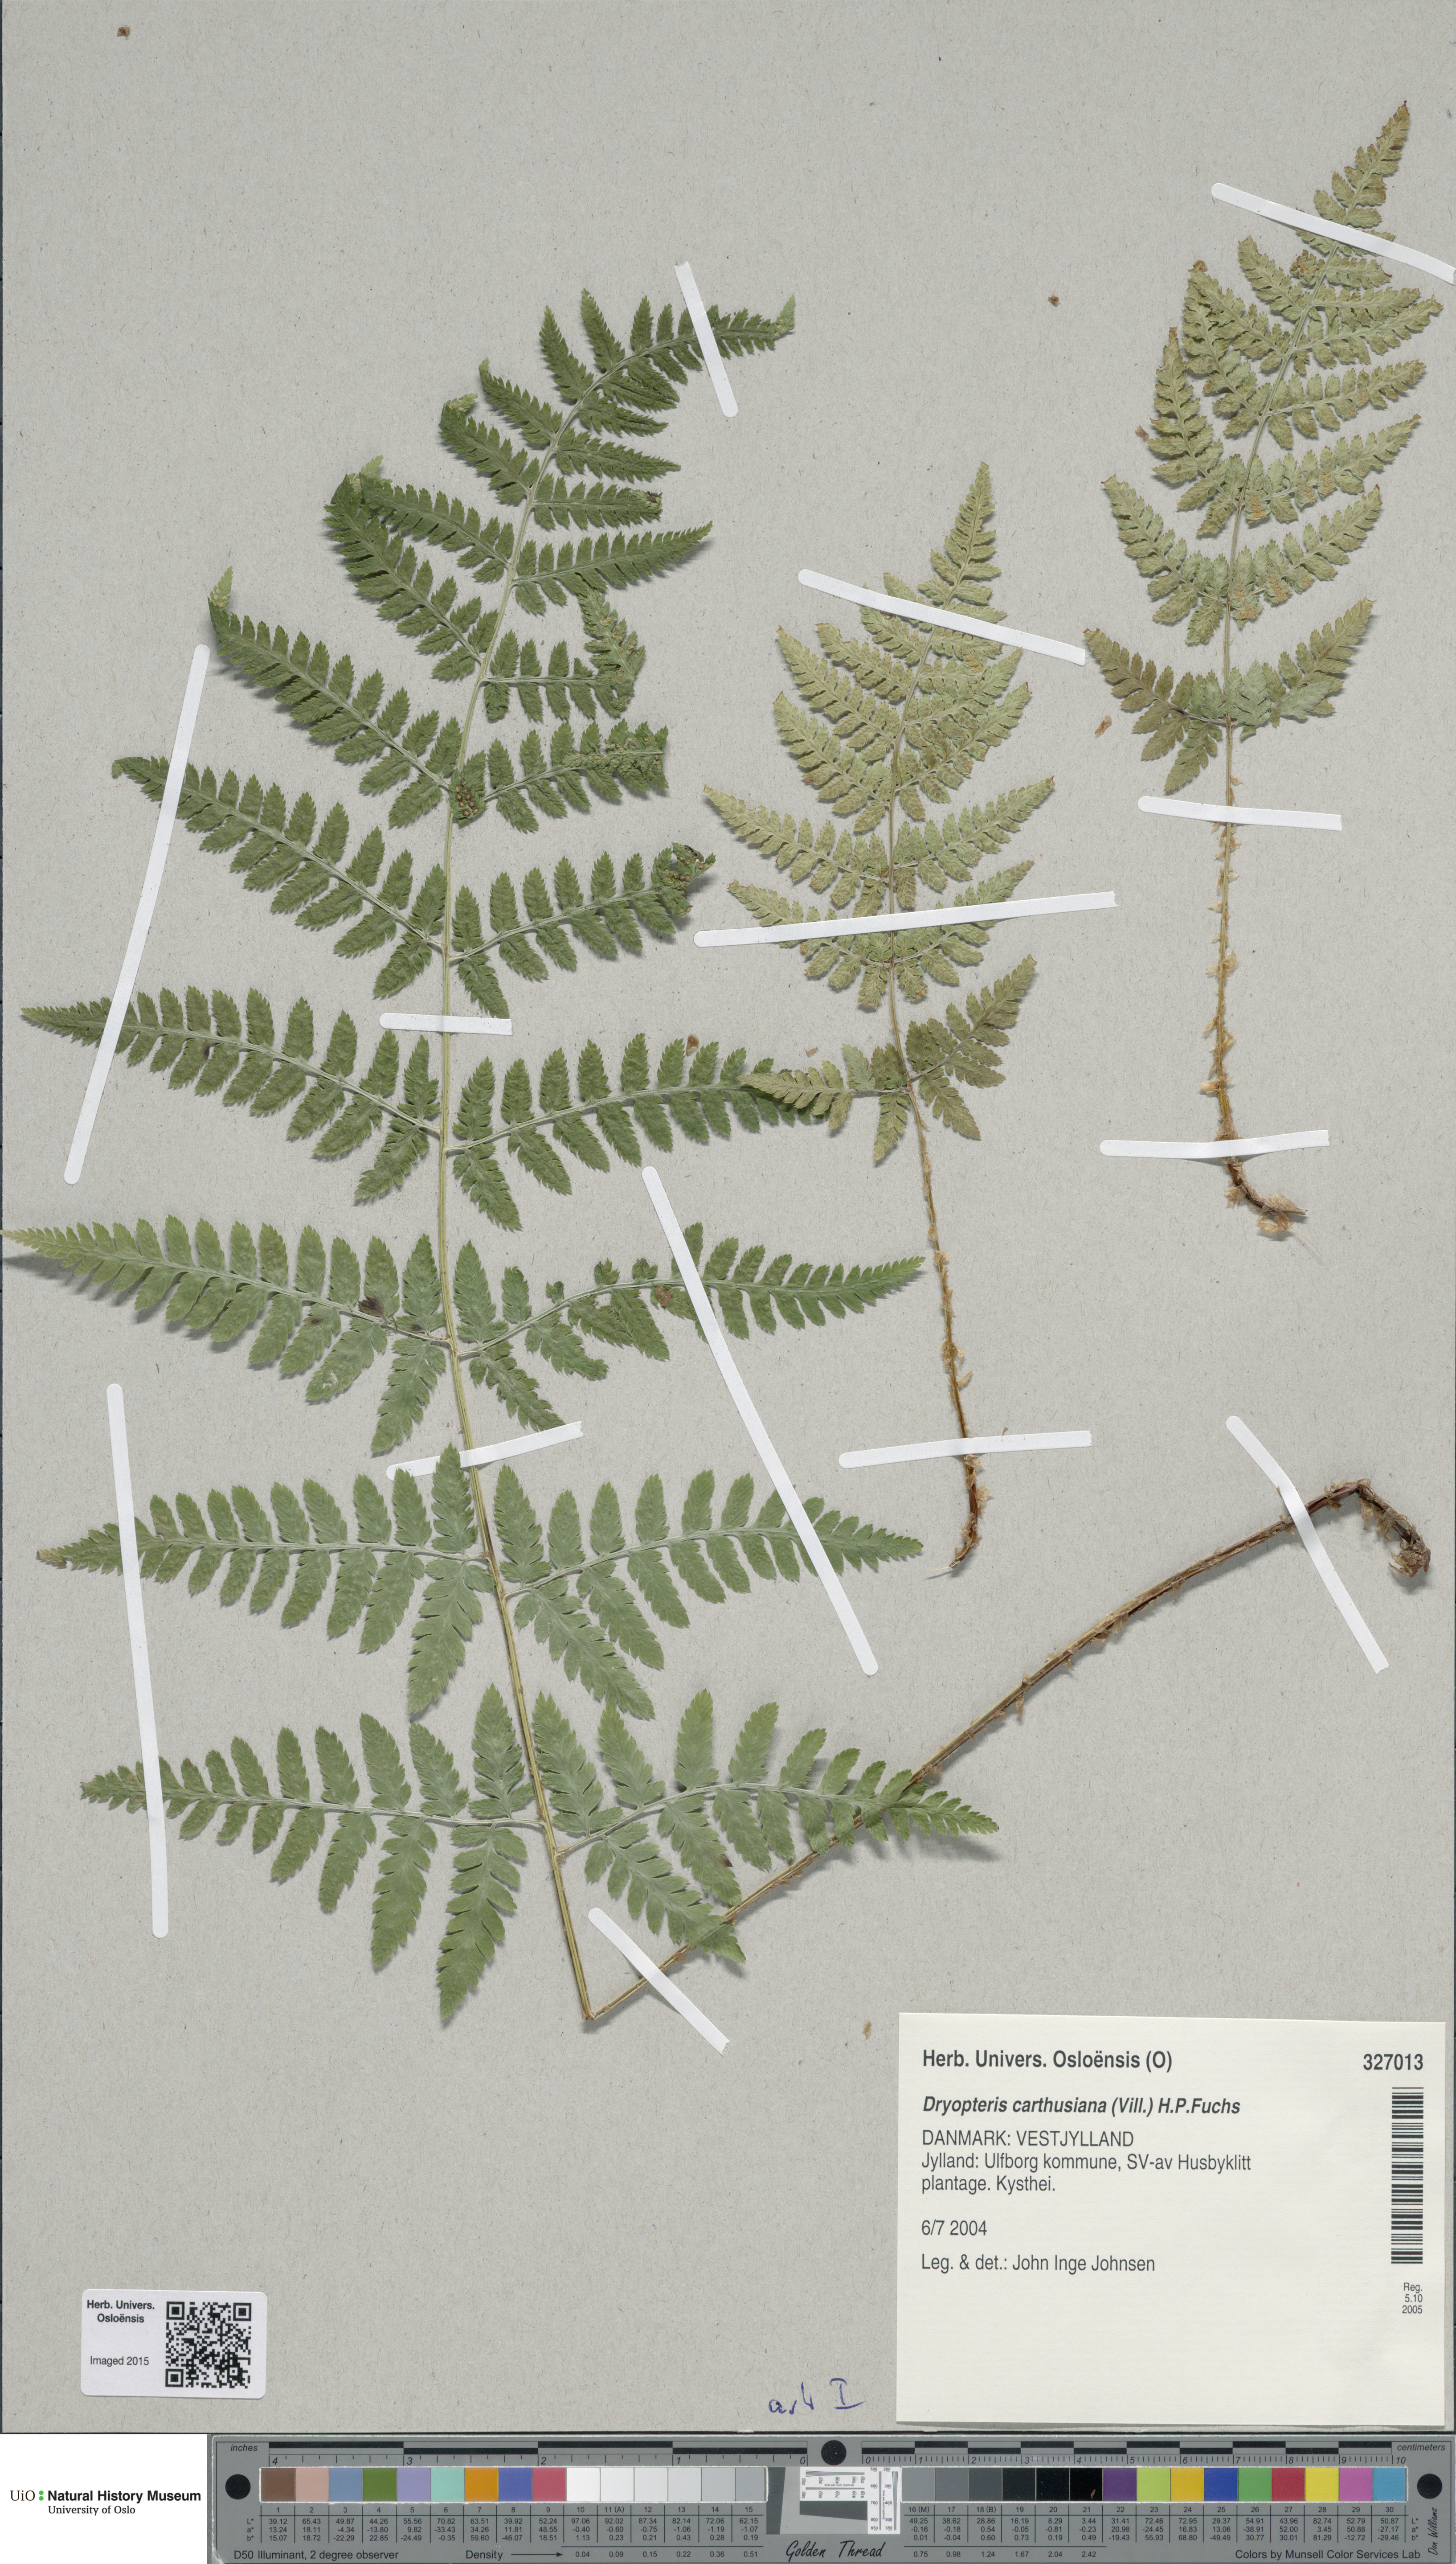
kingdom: Plantae
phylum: Tracheophyta
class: Polypodiopsida
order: Polypodiales
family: Dryopteridaceae
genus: Dryopteris
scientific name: Dryopteris carthusiana
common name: Narrow buckler-fern
